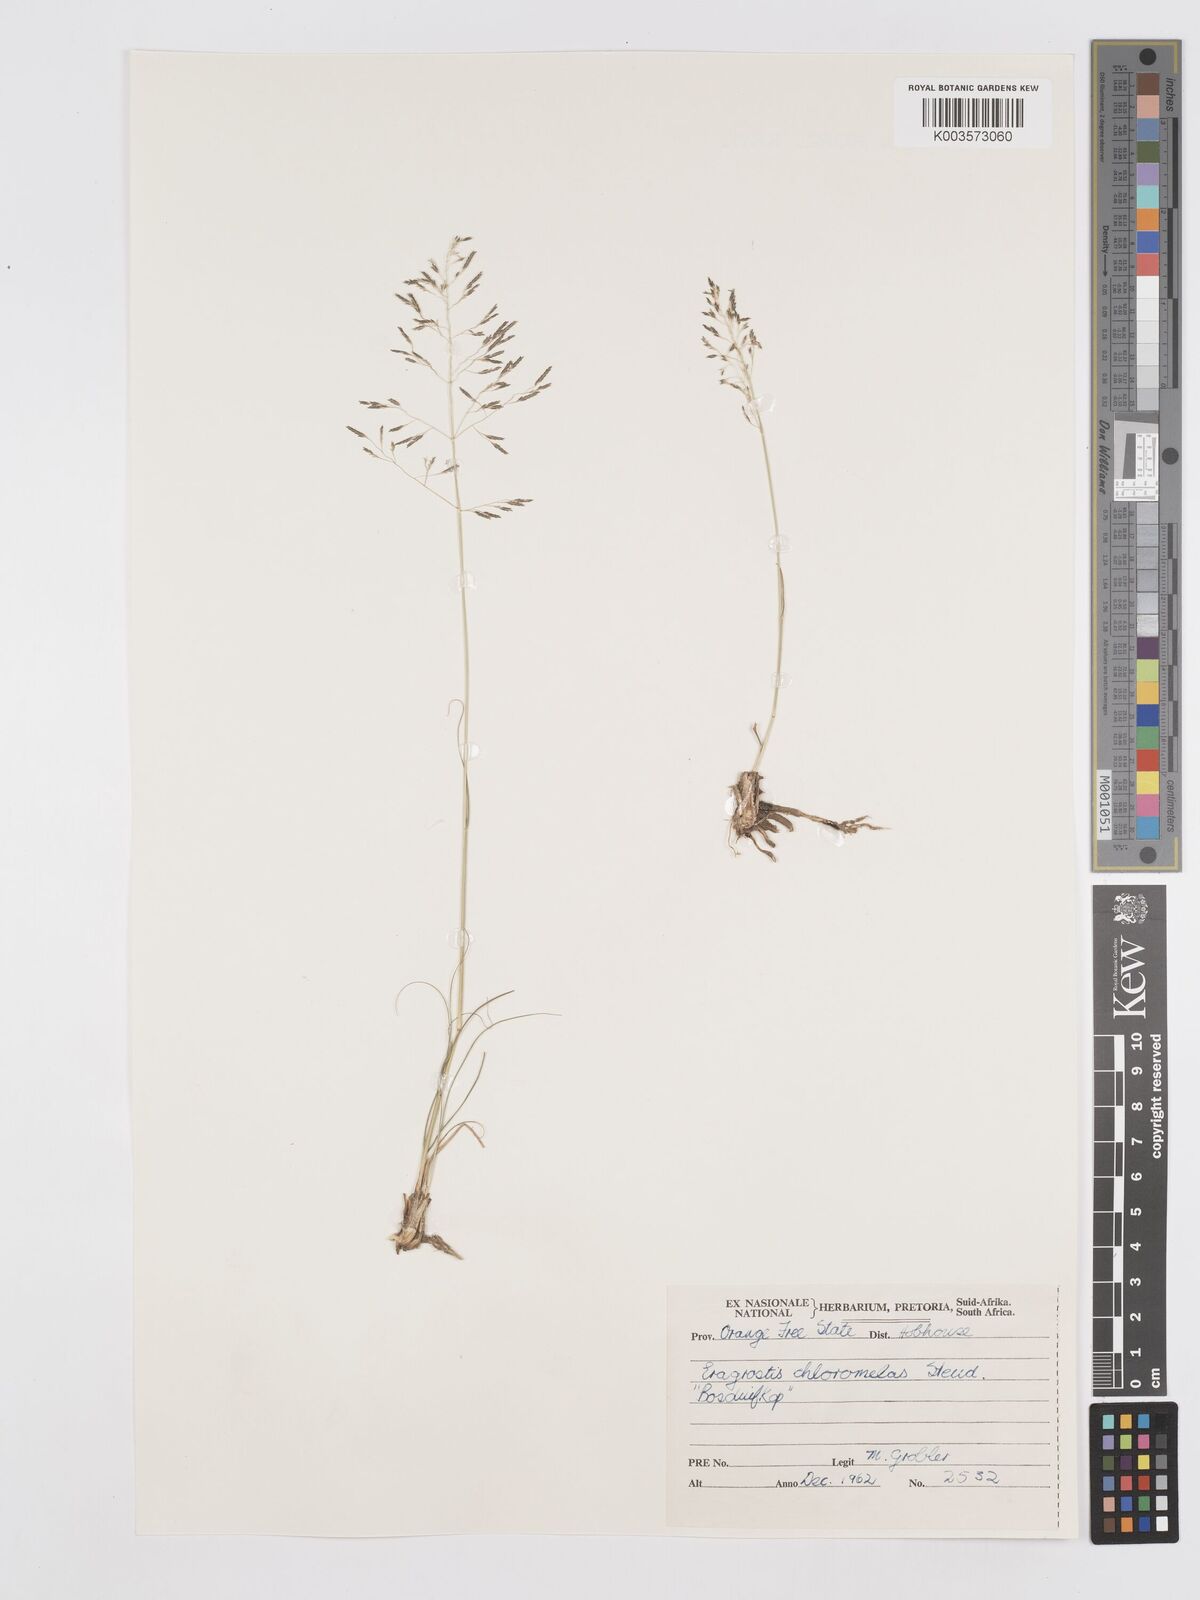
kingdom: Plantae
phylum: Tracheophyta
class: Liliopsida
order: Poales
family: Poaceae
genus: Eragrostis
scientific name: Eragrostis curvula
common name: African love-grass
